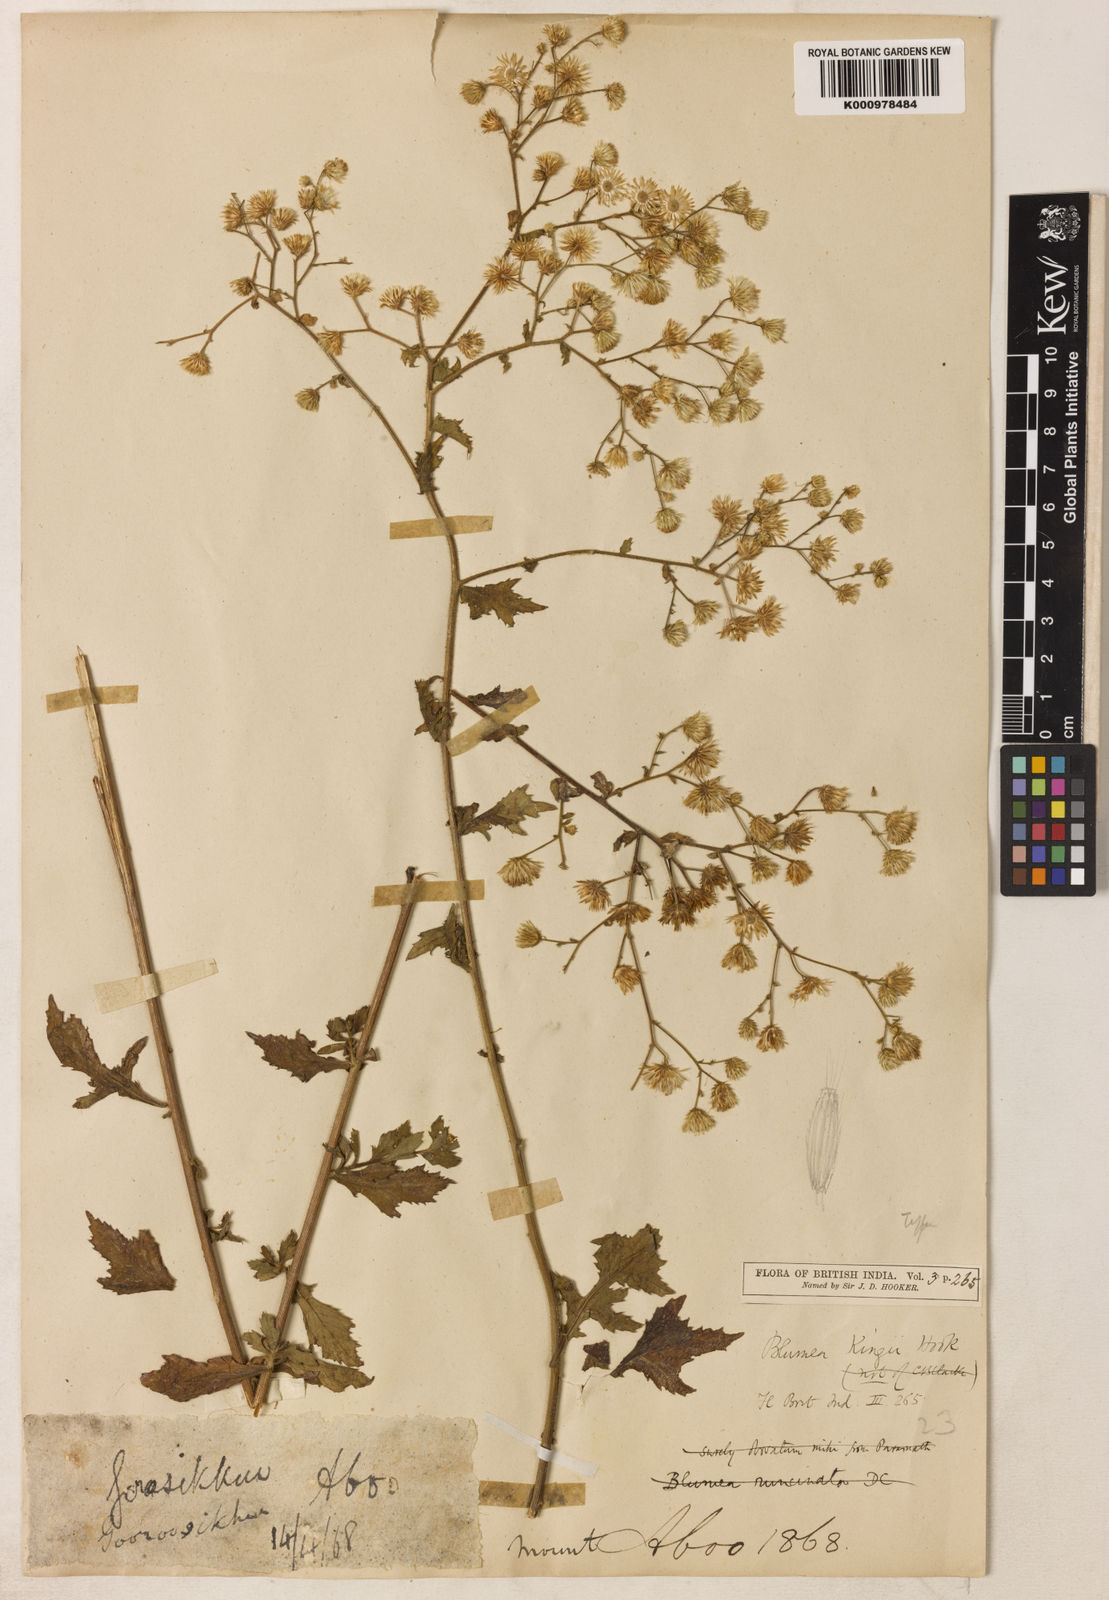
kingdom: Plantae
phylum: Tracheophyta
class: Magnoliopsida
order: Asterales
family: Asteraceae
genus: Pluchea
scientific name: Pluchea paniculata
